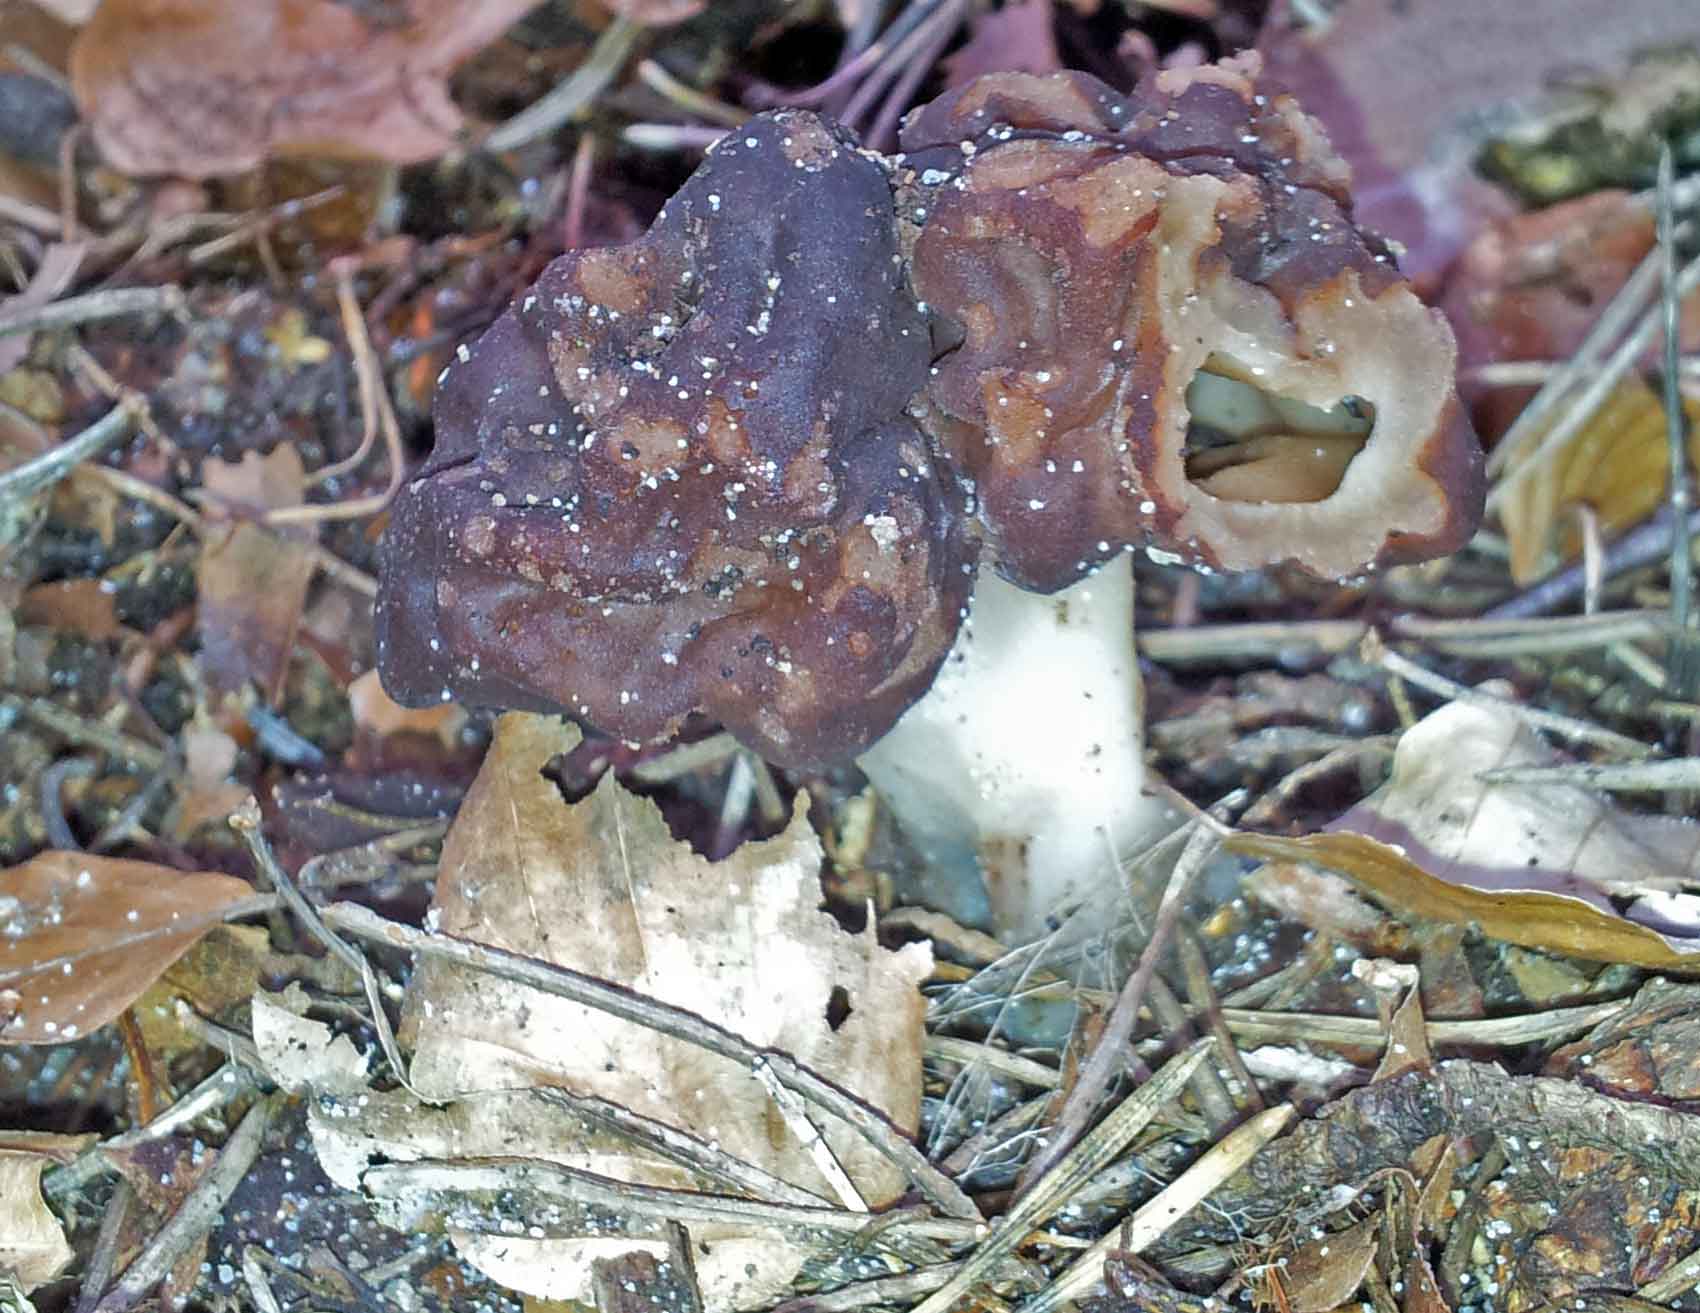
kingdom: Fungi
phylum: Ascomycota
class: Pezizomycetes
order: Pezizales
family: Discinaceae
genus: Gyromitra
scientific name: Gyromitra esculenta
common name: ægte stenmorkel
